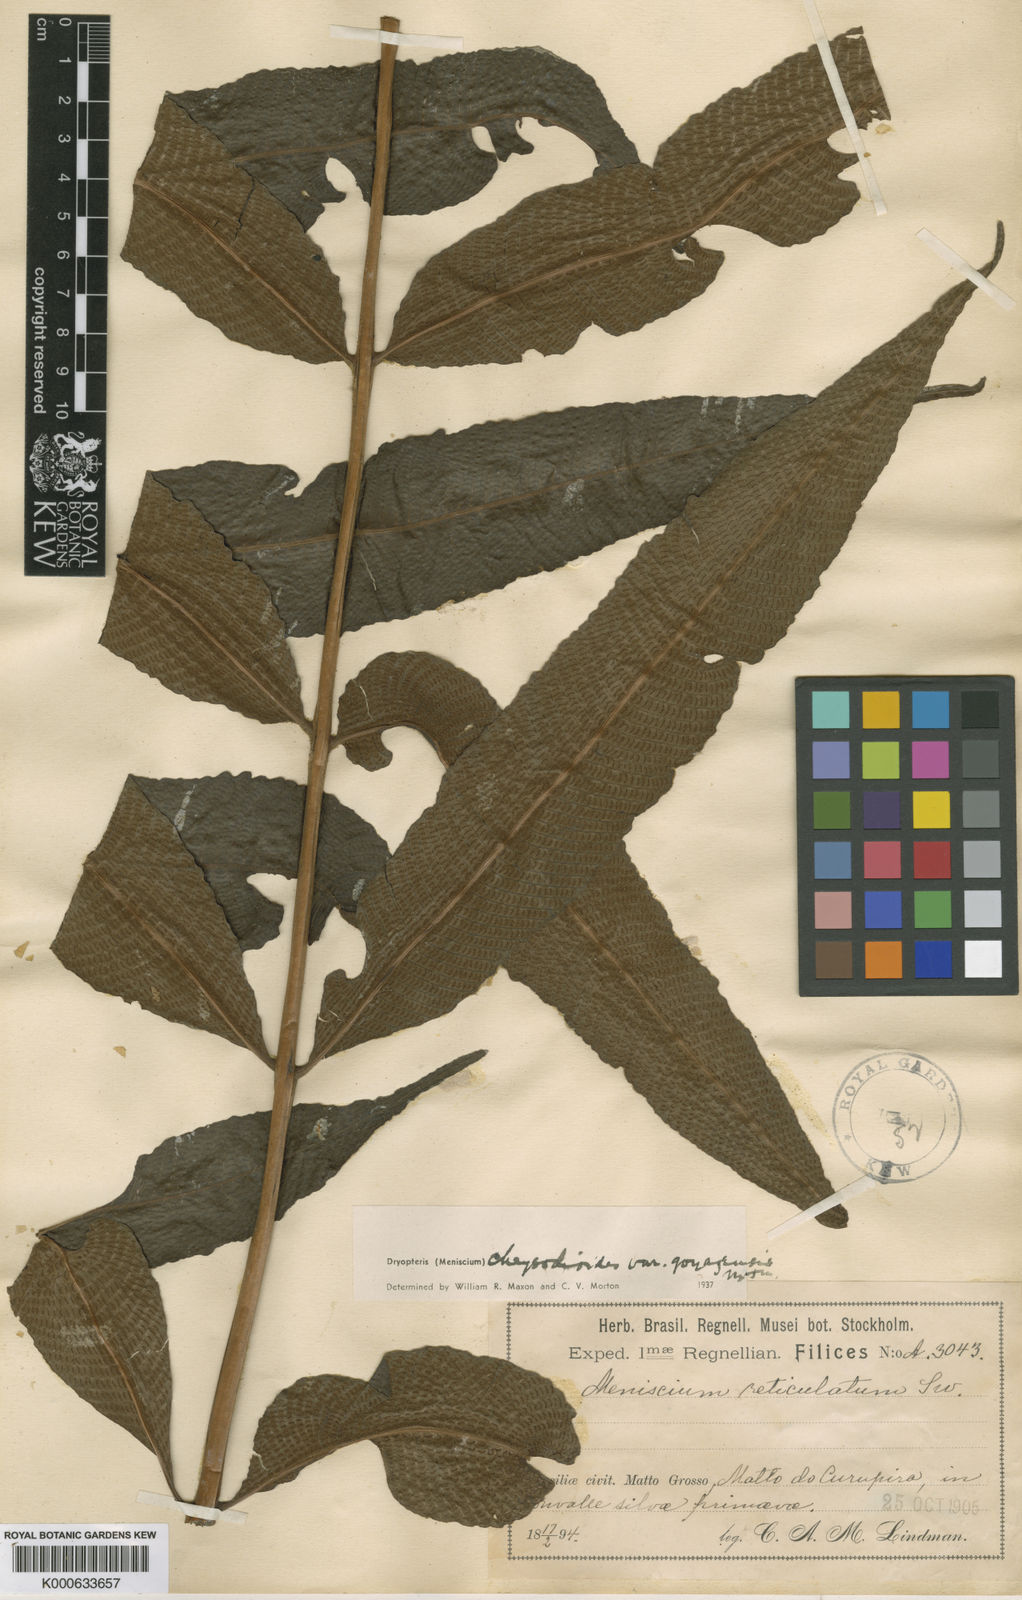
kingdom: Plantae
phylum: Tracheophyta
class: Polypodiopsida
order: Polypodiales
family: Thelypteridaceae
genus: Meniscium
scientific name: Meniscium
